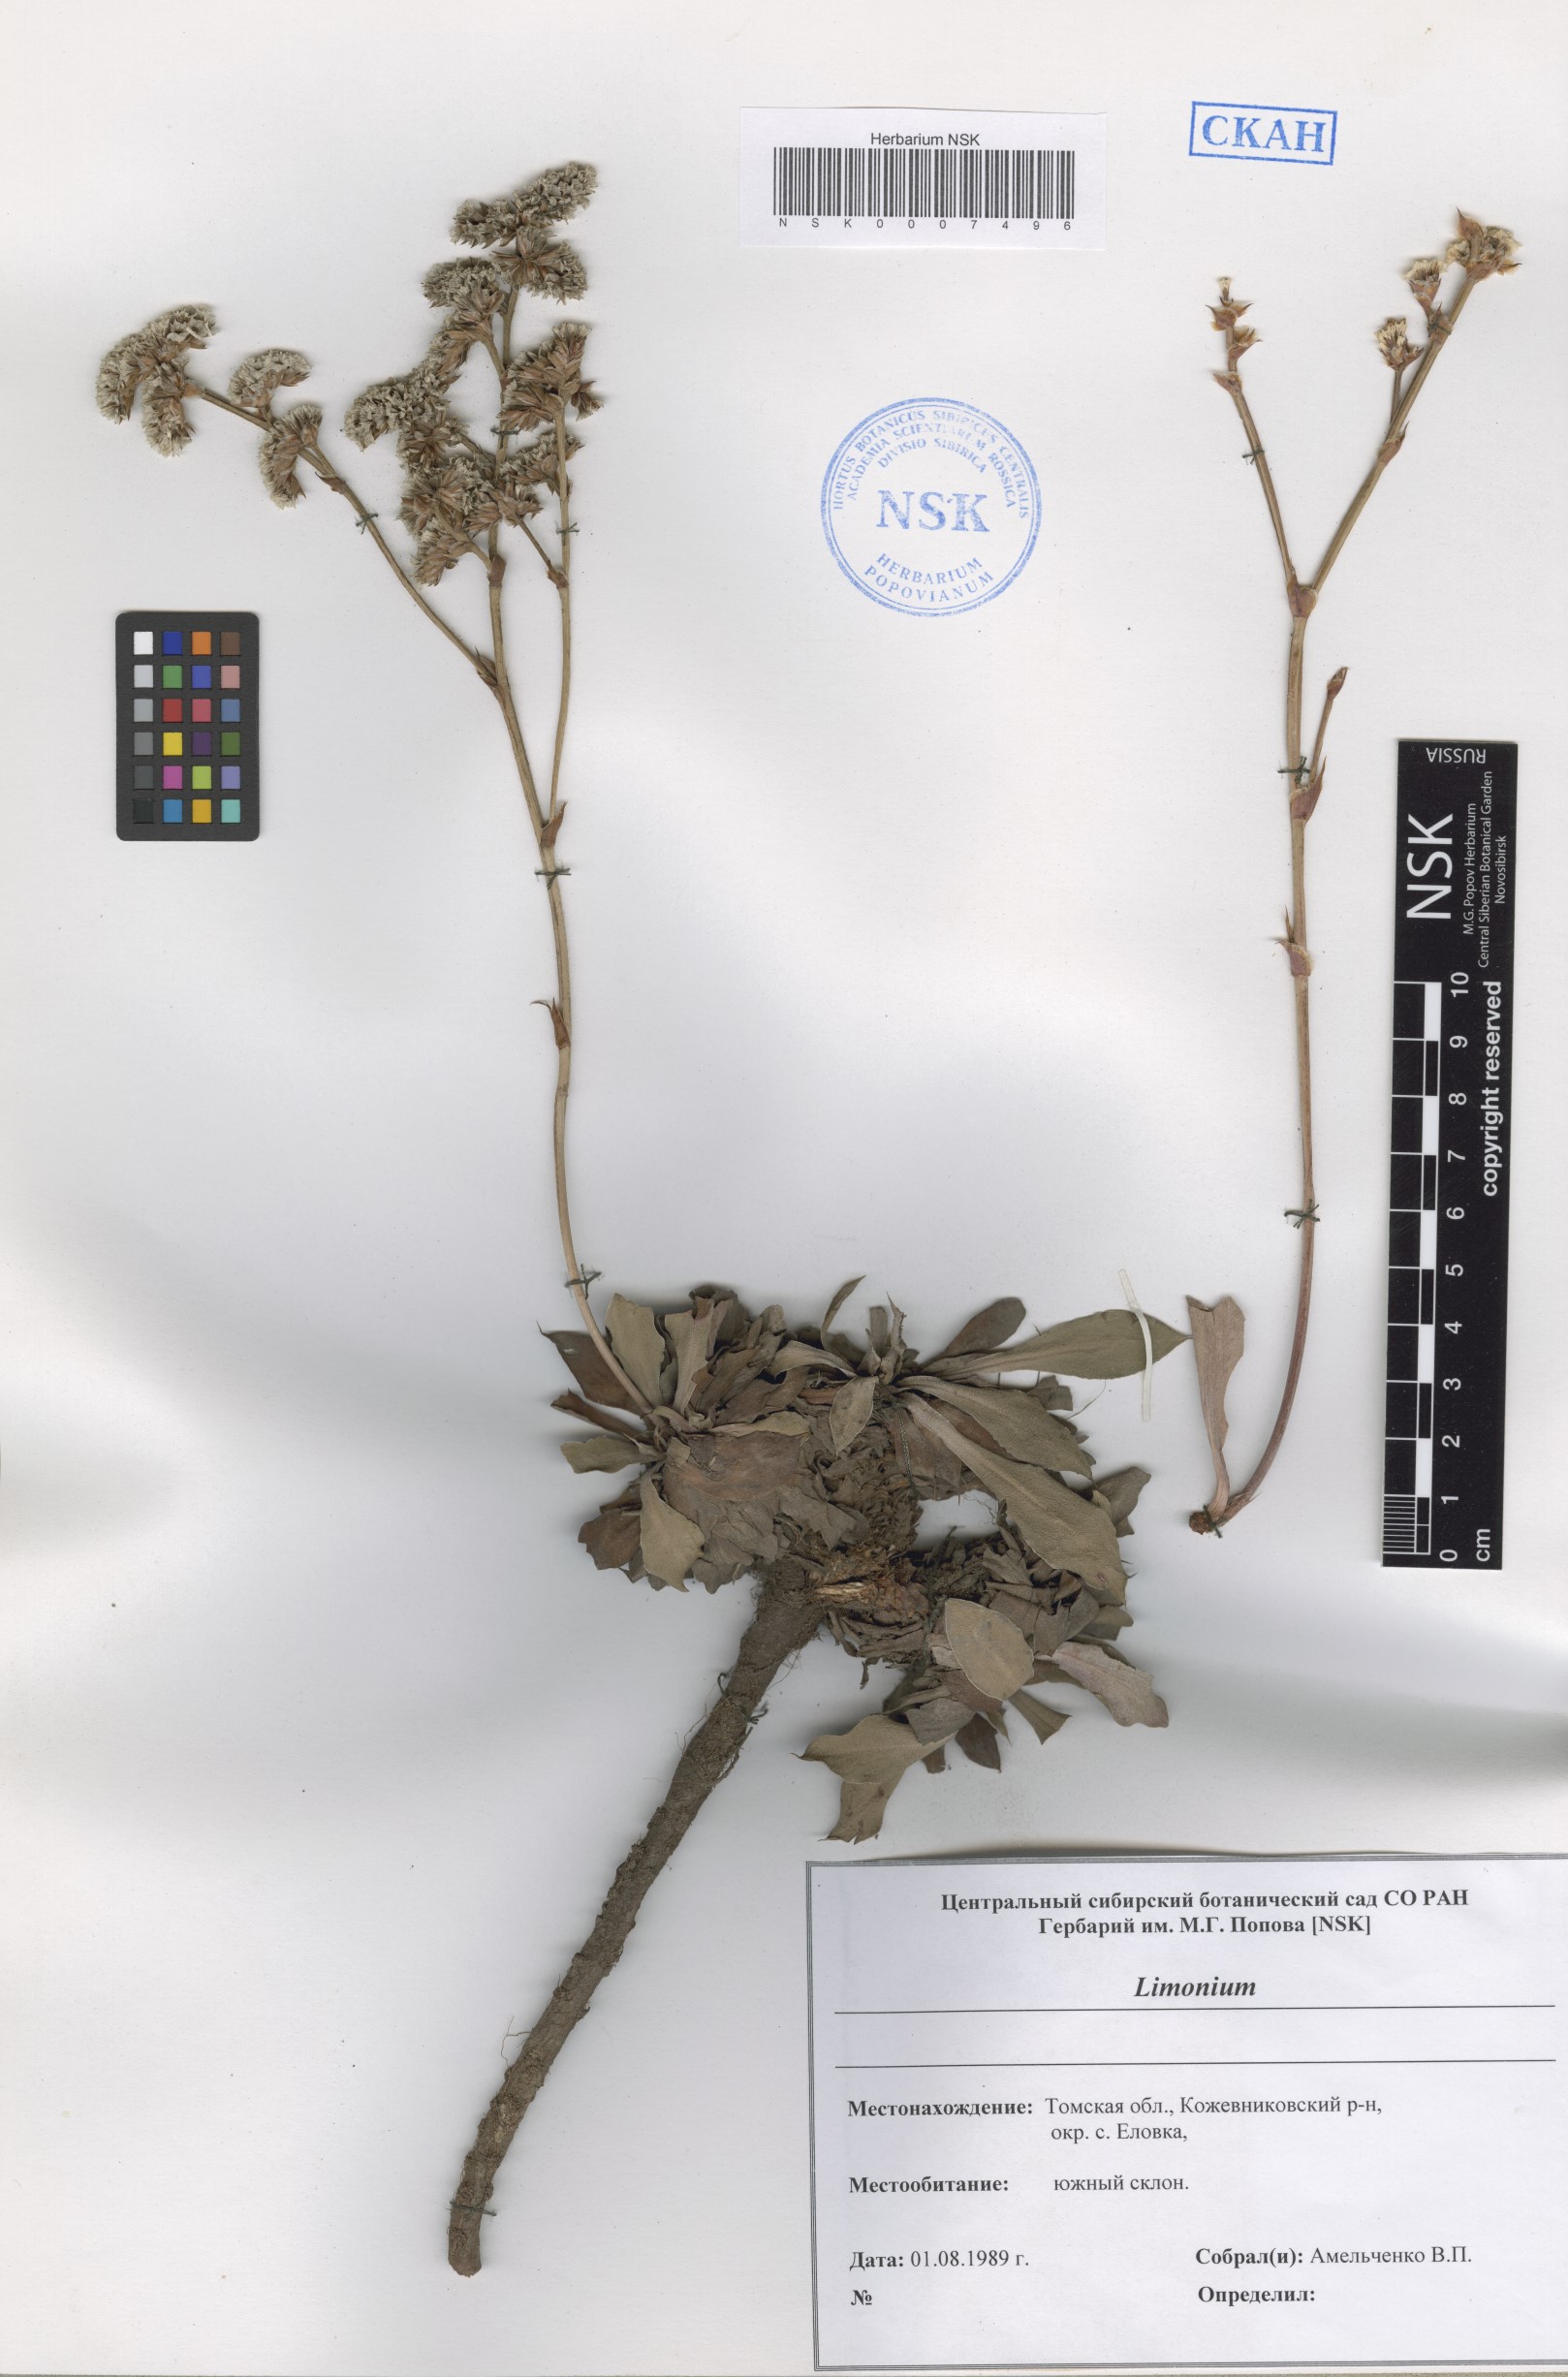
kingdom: Plantae
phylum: Tracheophyta
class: Magnoliopsida
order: Caryophyllales
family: Plumbaginaceae
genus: Limonium
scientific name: Limonium
